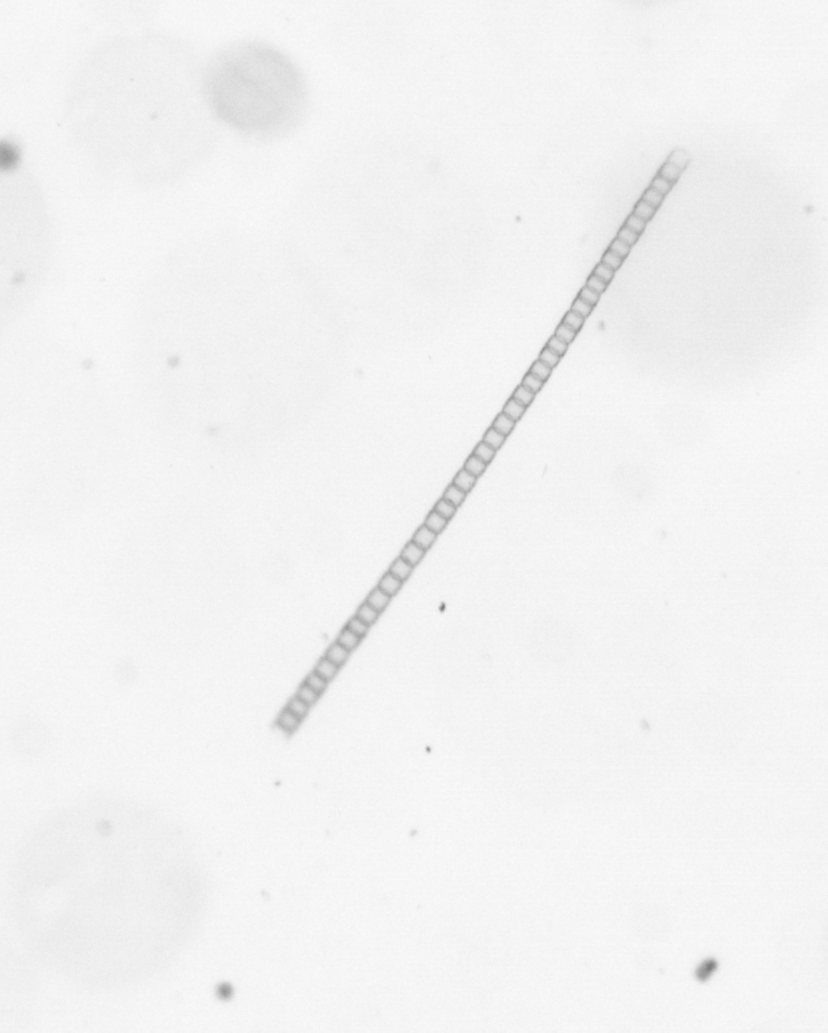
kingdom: Chromista
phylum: Ochrophyta
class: Bacillariophyceae
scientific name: Bacillariophyceae
